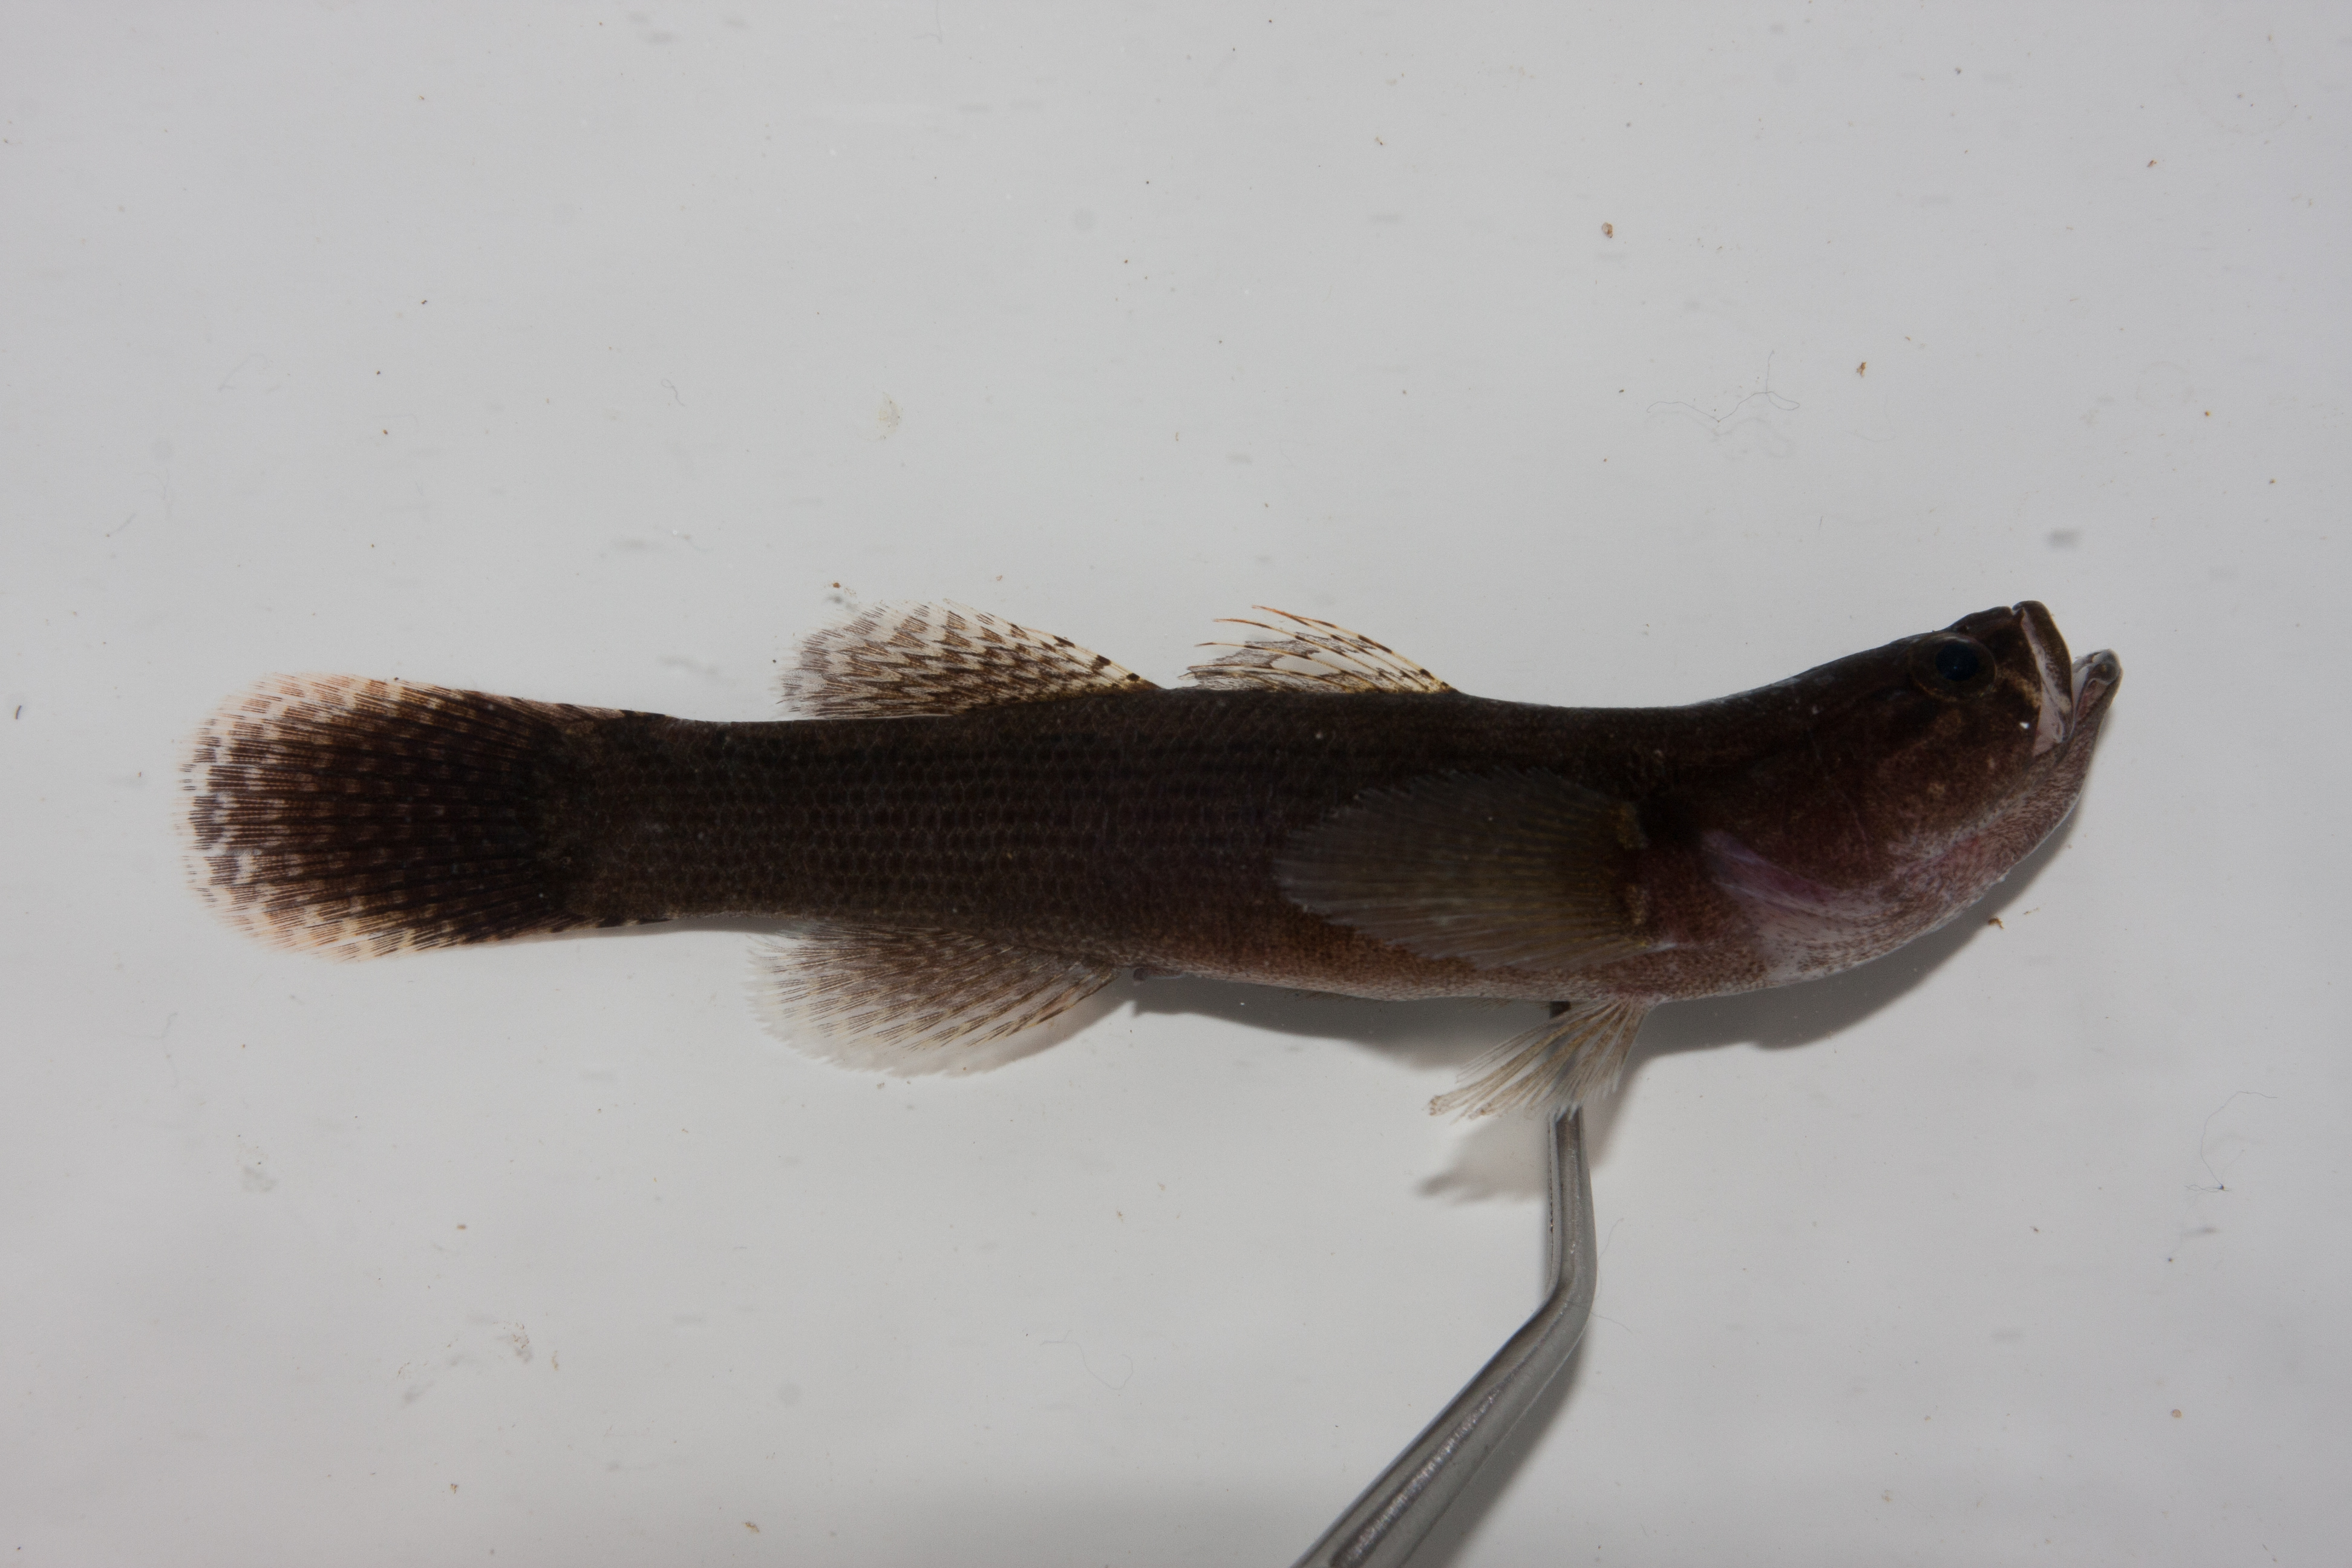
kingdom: Animalia
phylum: Chordata
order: Perciformes
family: Eleotridae
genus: Eleotris
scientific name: Eleotris fusca
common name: Brown gudgeon
